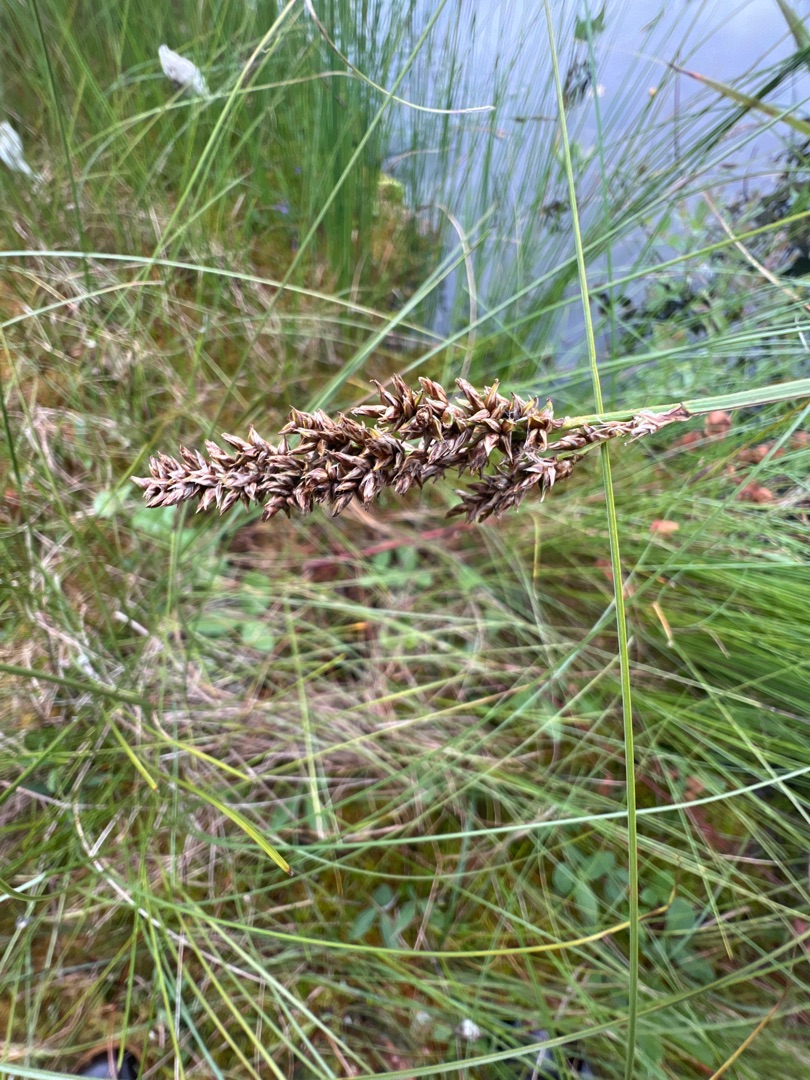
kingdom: Plantae
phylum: Tracheophyta
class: Liliopsida
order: Poales
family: Cyperaceae
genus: Carex
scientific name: Carex paniculata
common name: Top-star
